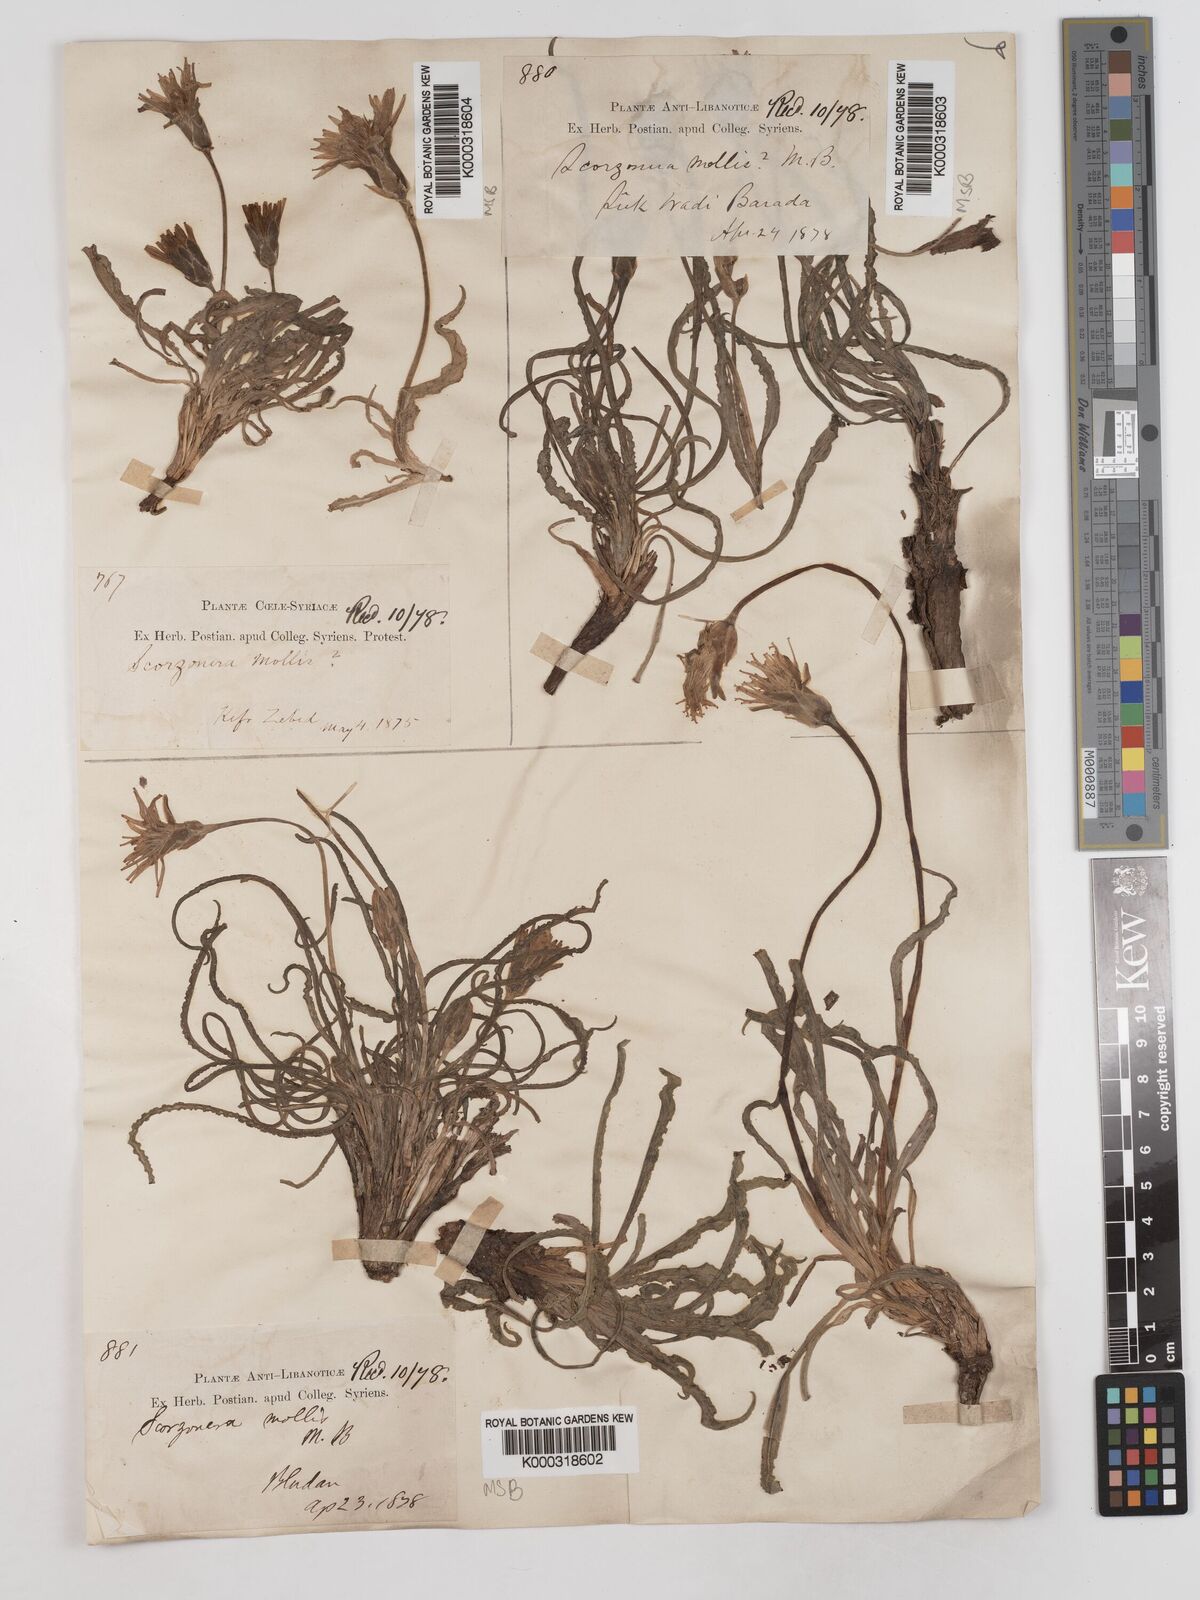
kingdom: Plantae
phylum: Tracheophyta
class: Magnoliopsida
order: Asterales
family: Asteraceae
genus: Candollea
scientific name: Candollea mollis
